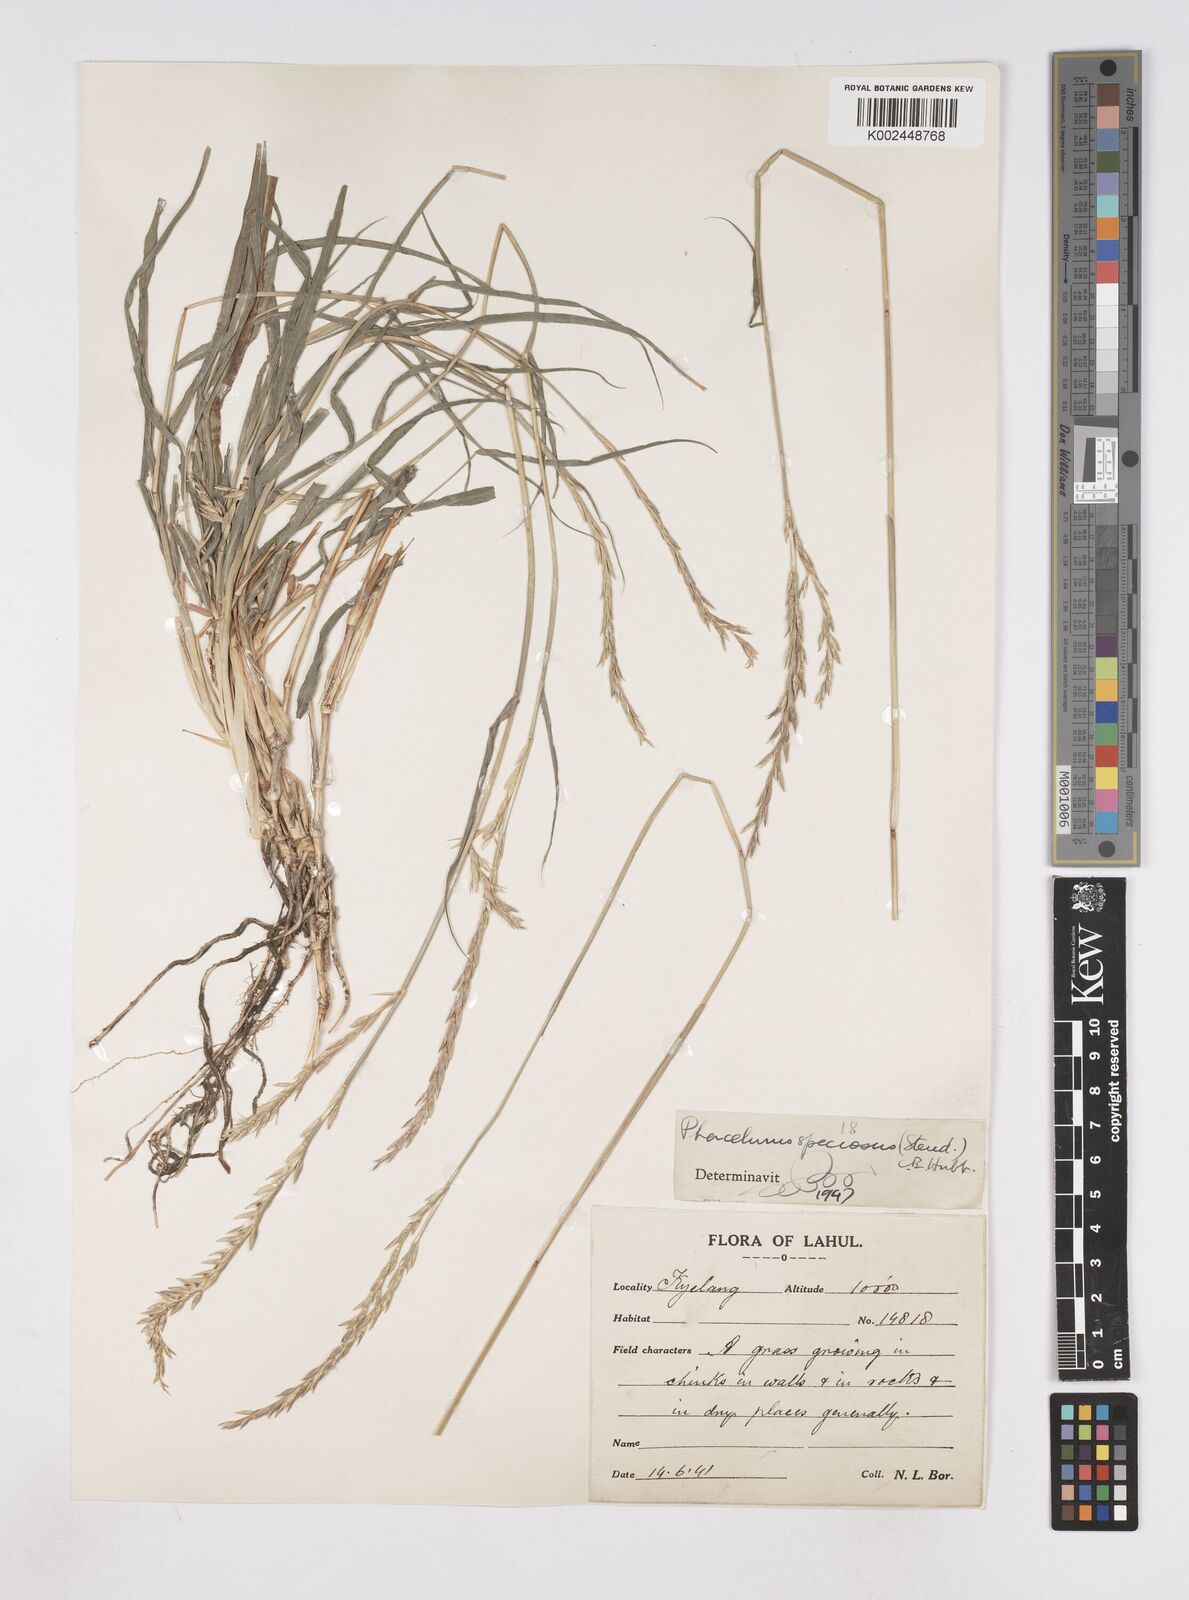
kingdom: Plantae
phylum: Tracheophyta
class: Liliopsida
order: Poales
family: Poaceae
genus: Phacelurus
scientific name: Phacelurus speciosus
